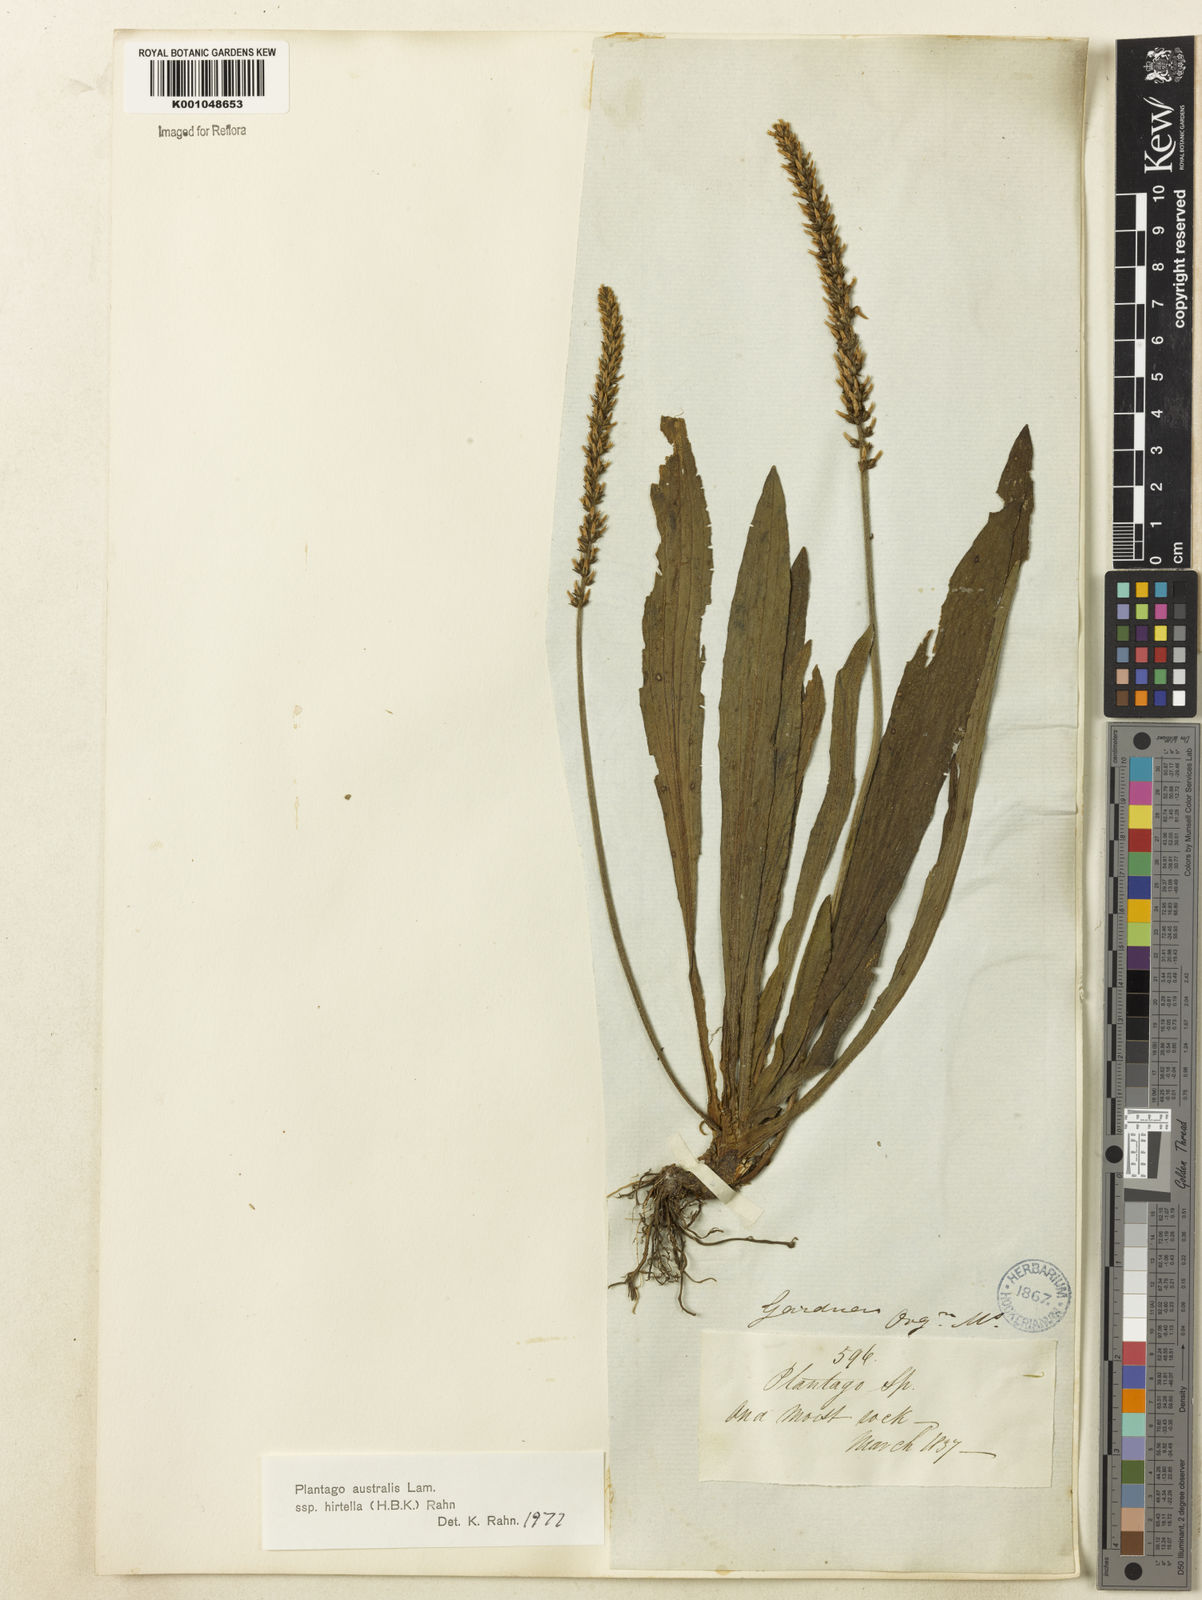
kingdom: Plantae
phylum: Tracheophyta
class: Magnoliopsida
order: Lamiales
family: Plantaginaceae
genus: Plantago
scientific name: Plantago australis
